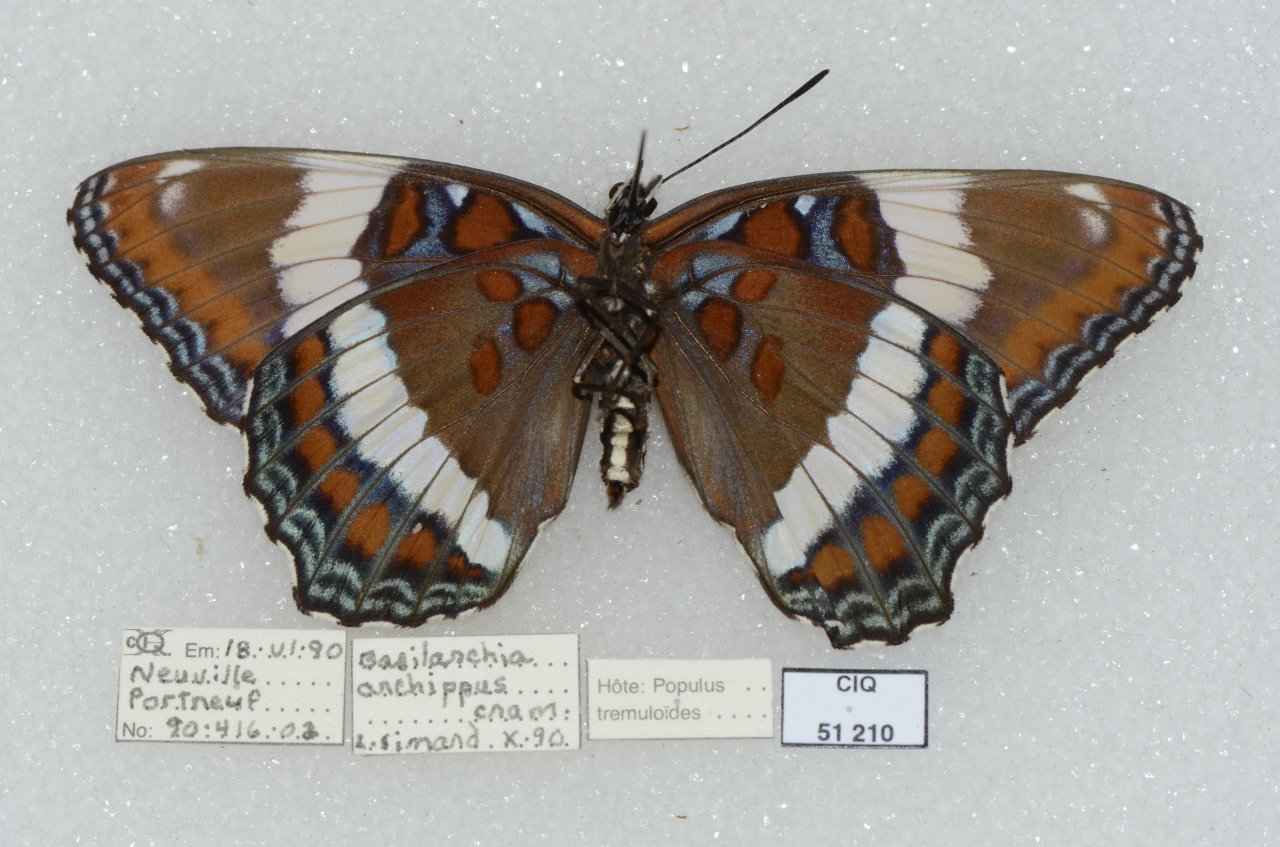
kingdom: Animalia
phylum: Arthropoda
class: Insecta
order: Lepidoptera
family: Nymphalidae
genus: Limenitis
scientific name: Limenitis arthemis
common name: Red-spotted Admiral
